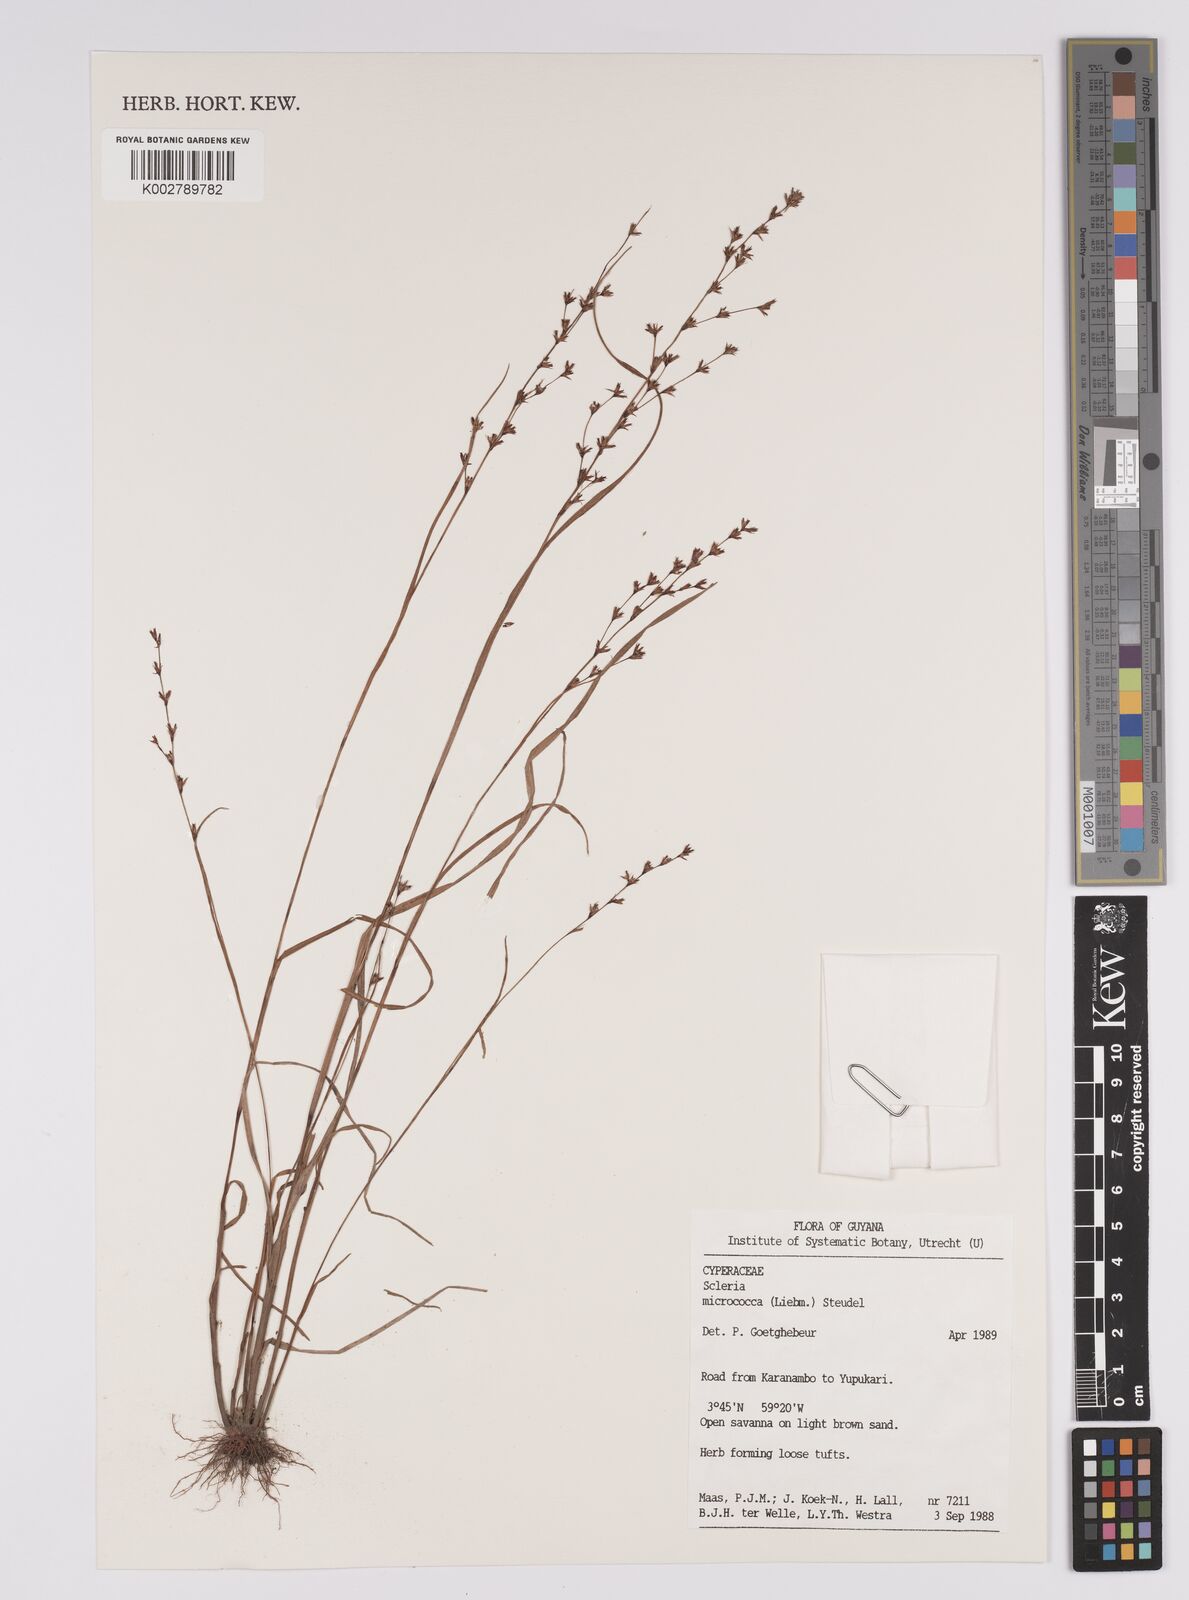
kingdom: Plantae
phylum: Tracheophyta
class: Liliopsida
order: Poales
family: Cyperaceae
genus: Scleria
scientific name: Scleria tenella
